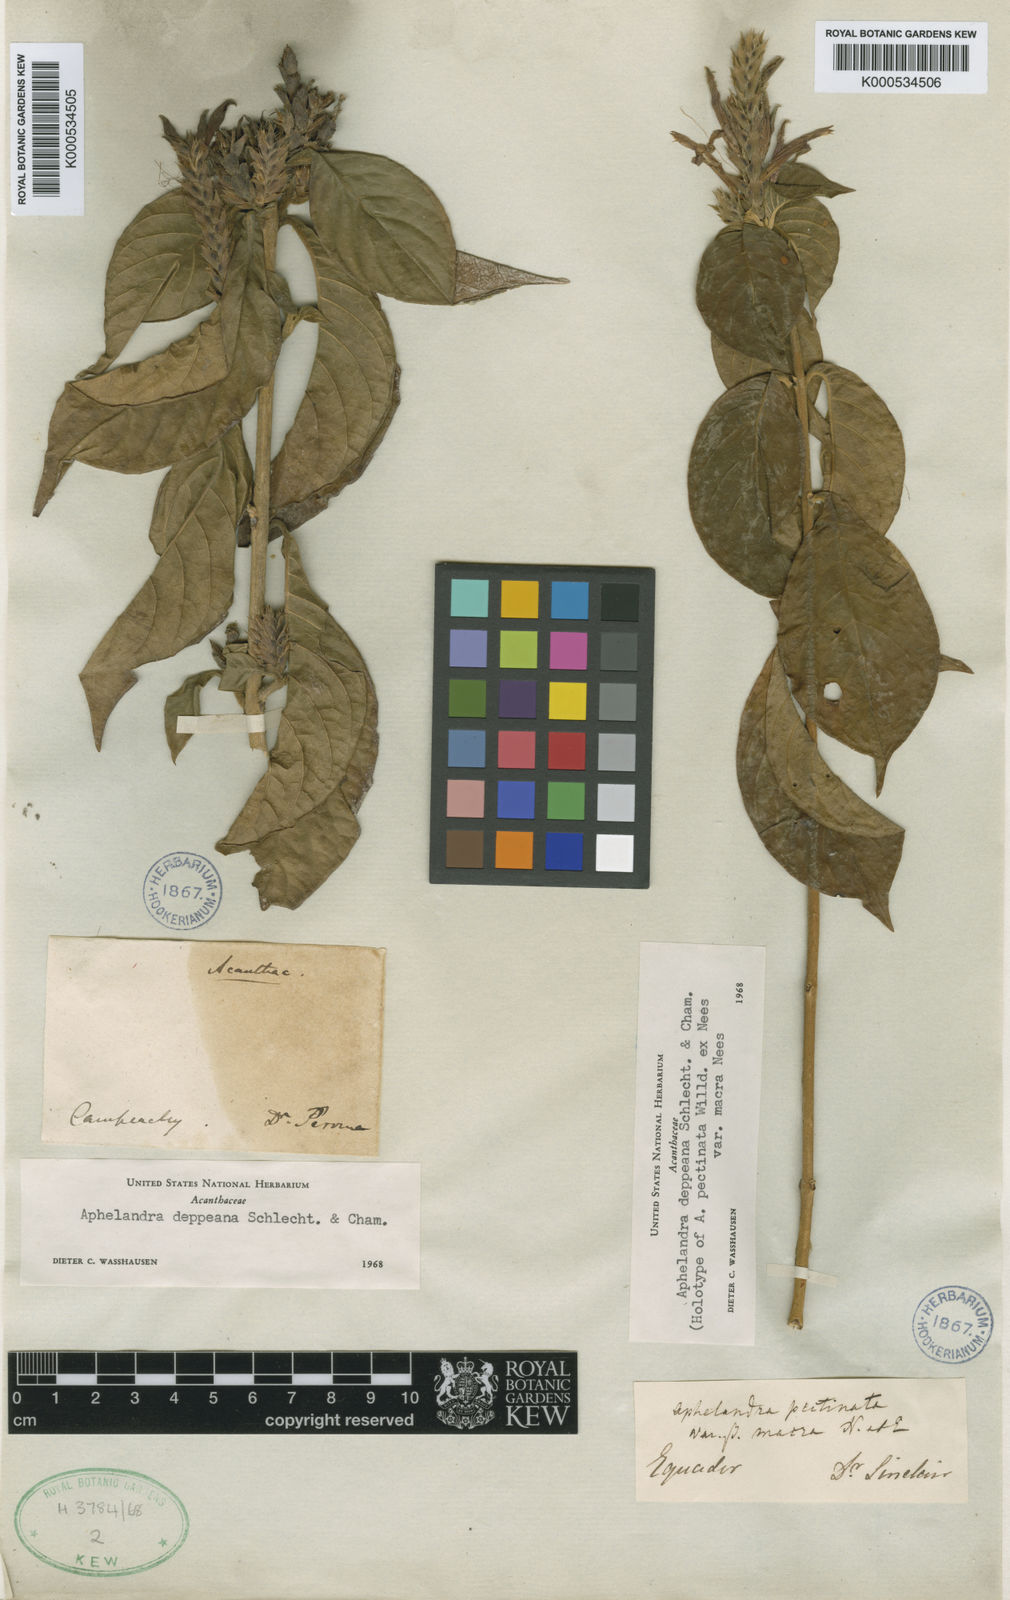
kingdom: Plantae
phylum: Tracheophyta
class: Magnoliopsida
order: Lamiales
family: Acanthaceae
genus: Aphelandra
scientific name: Aphelandra scabra
